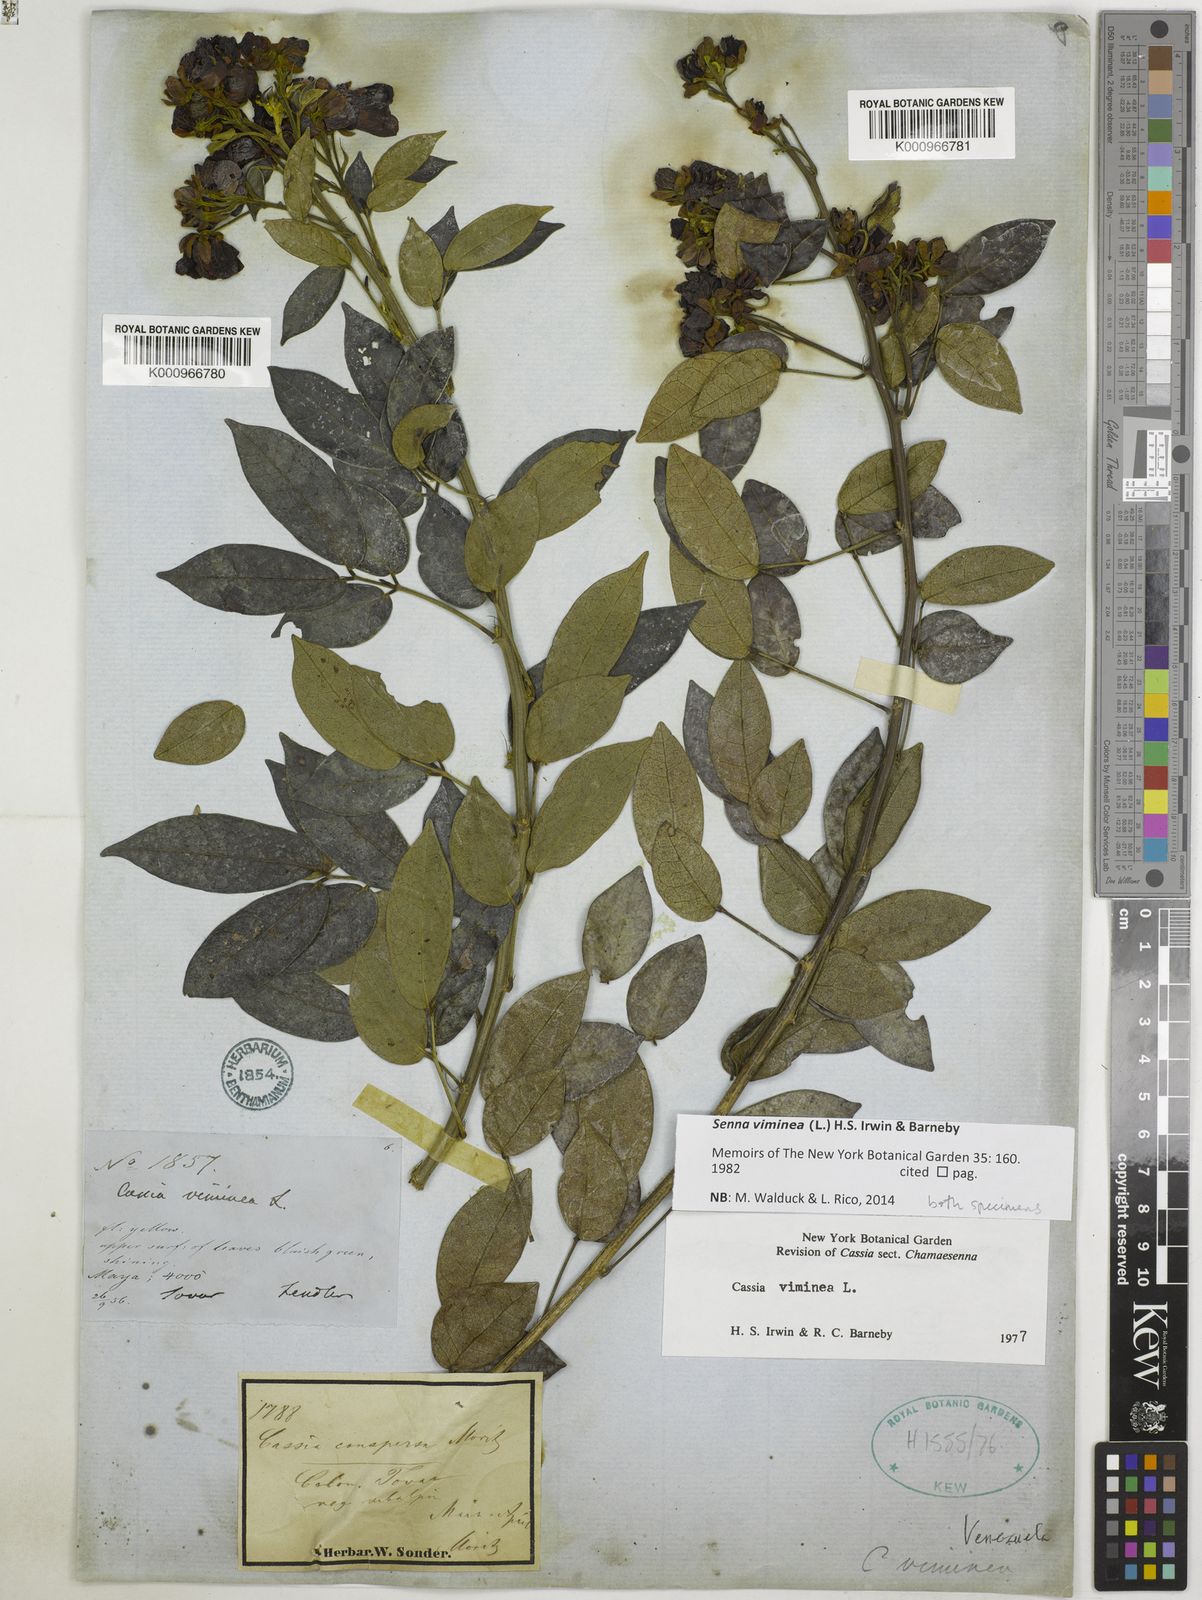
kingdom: Plantae
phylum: Tracheophyta
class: Magnoliopsida
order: Fabales
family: Fabaceae
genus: Senna
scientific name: Senna viminea
